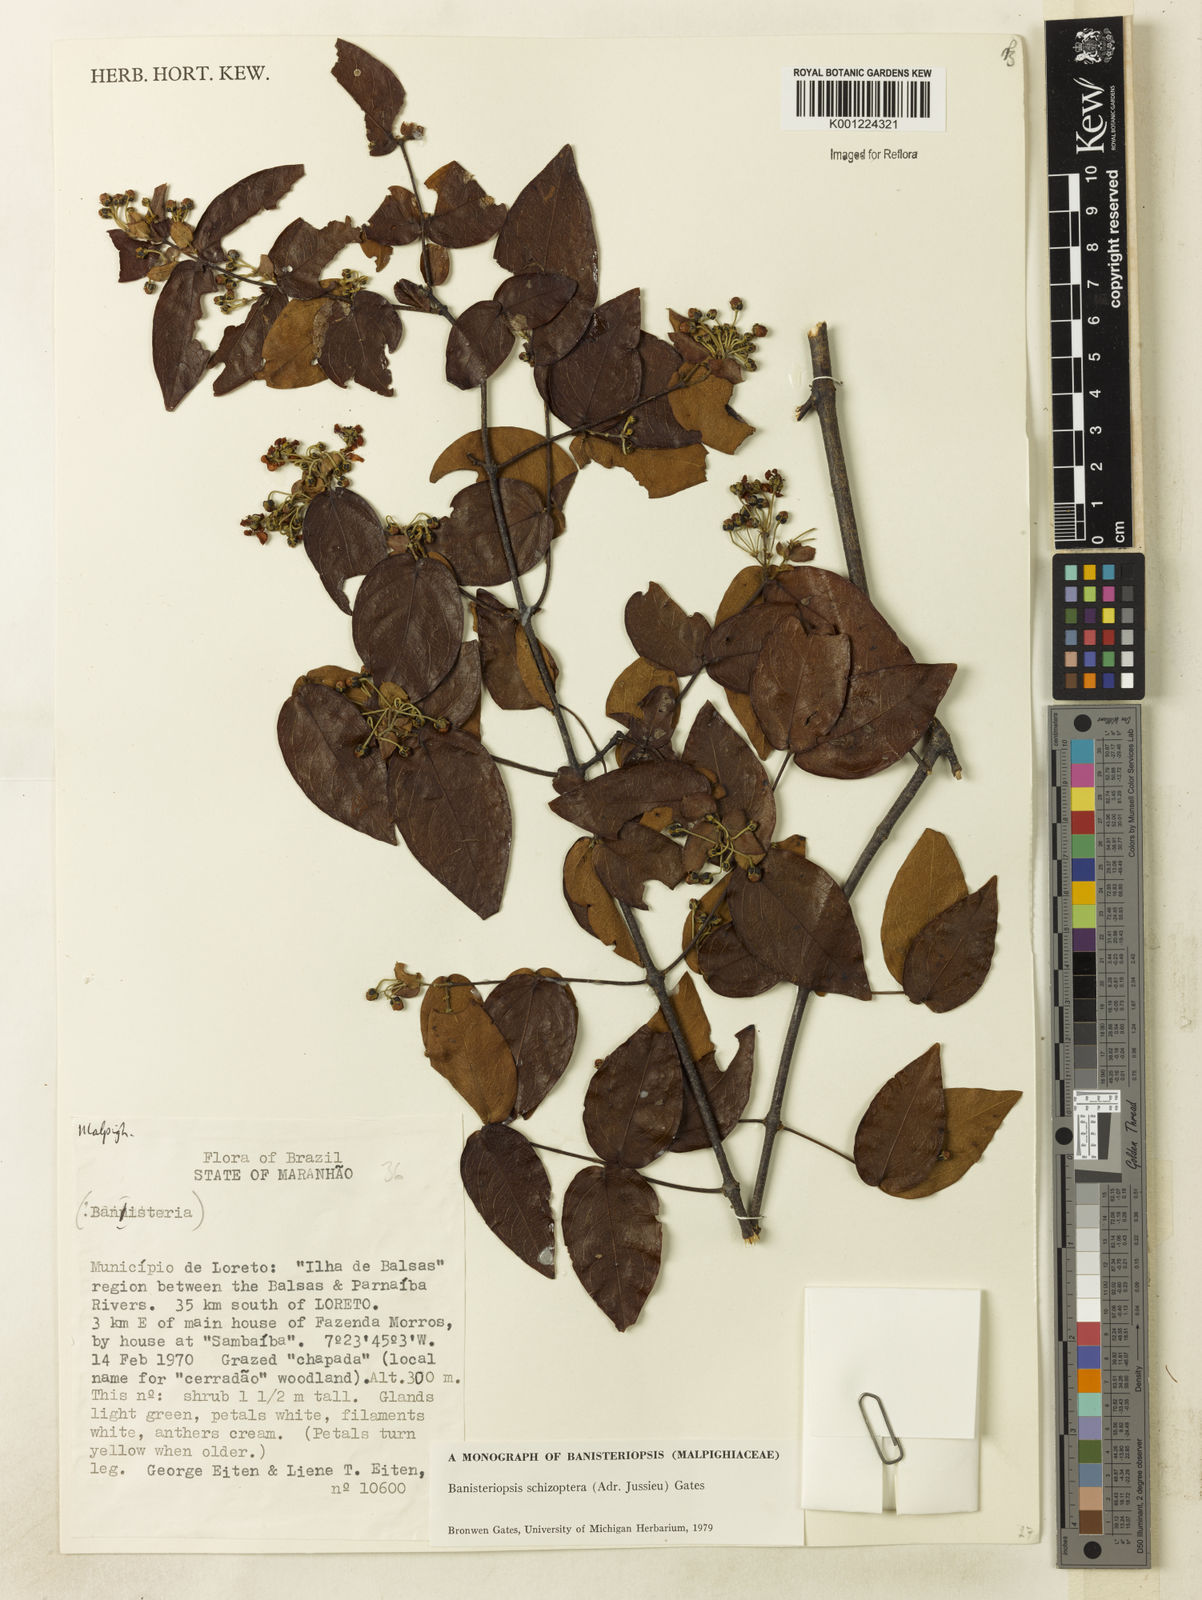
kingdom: Plantae
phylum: Tracheophyta
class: Magnoliopsida
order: Malpighiales
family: Malpighiaceae
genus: Banisteriopsis
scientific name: Banisteriopsis schizoptera
